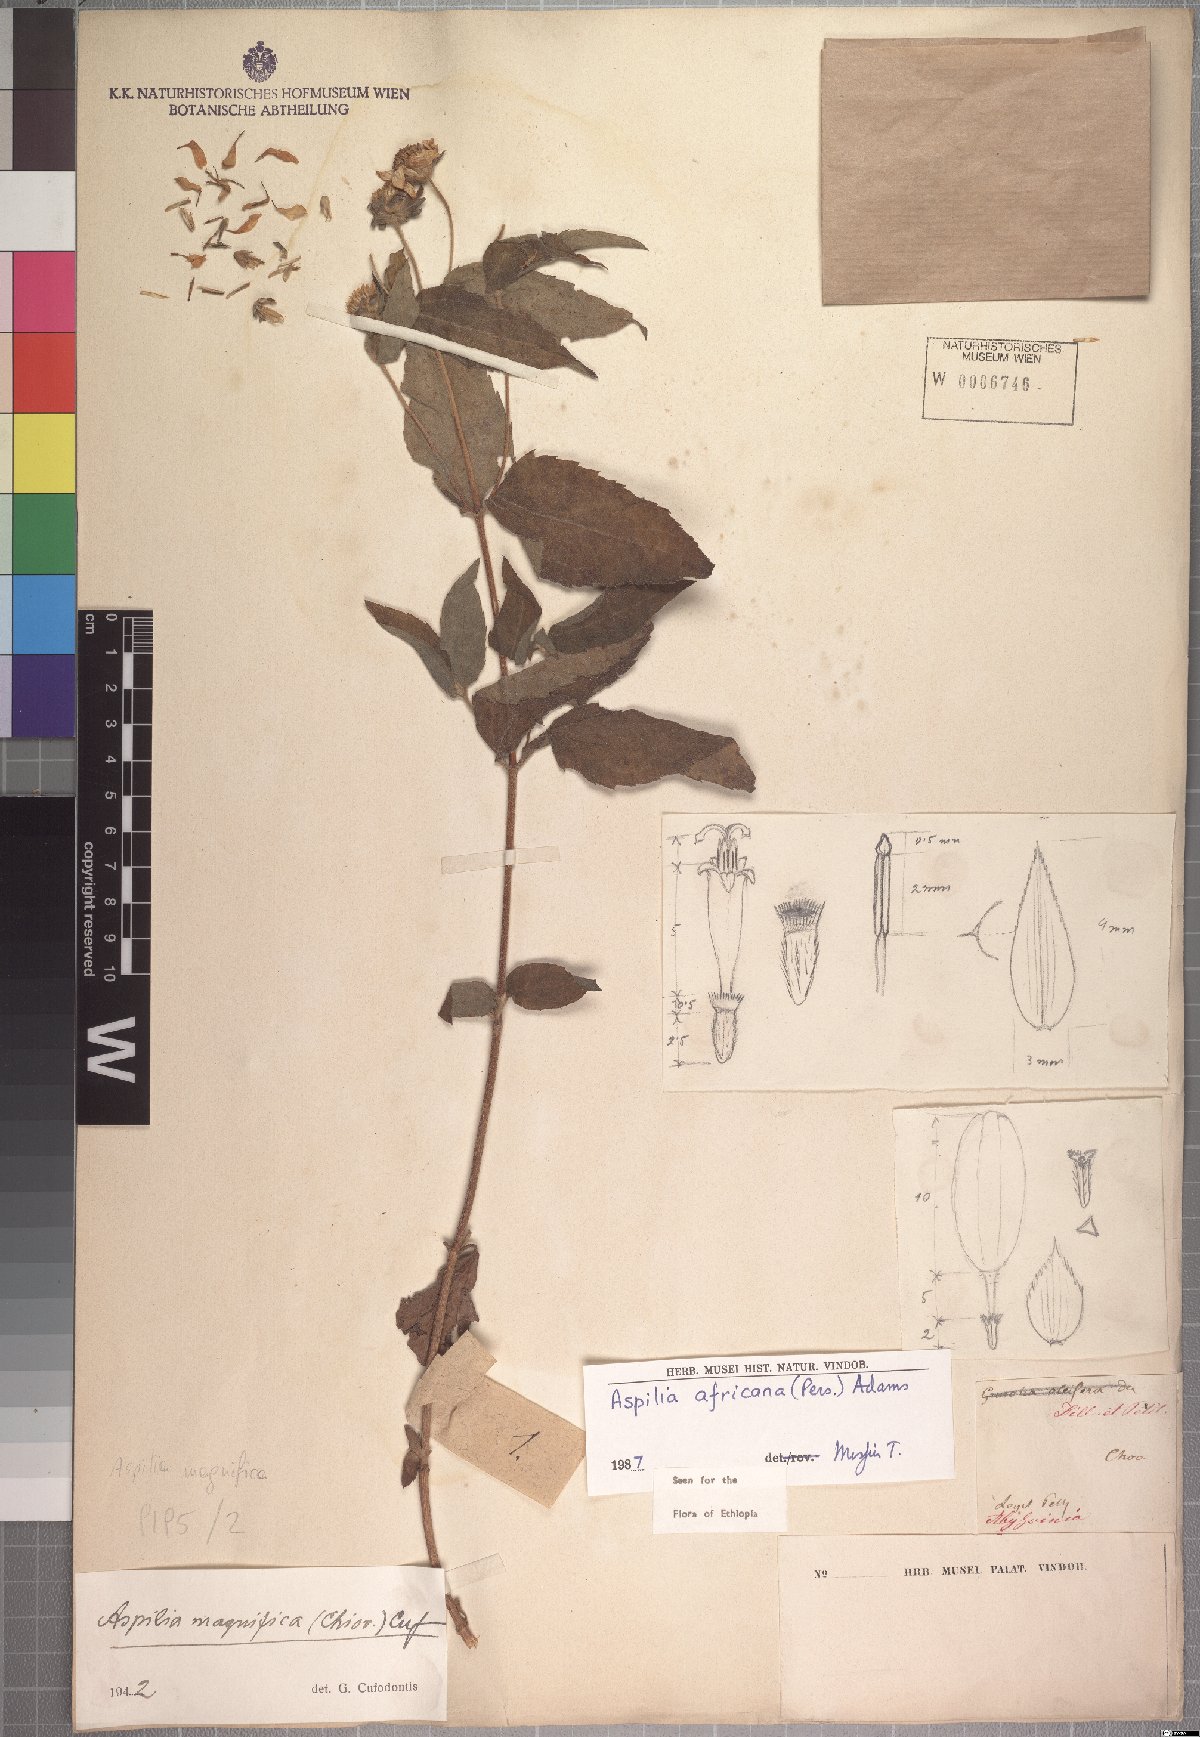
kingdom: Plantae
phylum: Tracheophyta
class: Magnoliopsida
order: Asterales
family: Asteraceae
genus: Aspilia
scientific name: Aspilia africana
